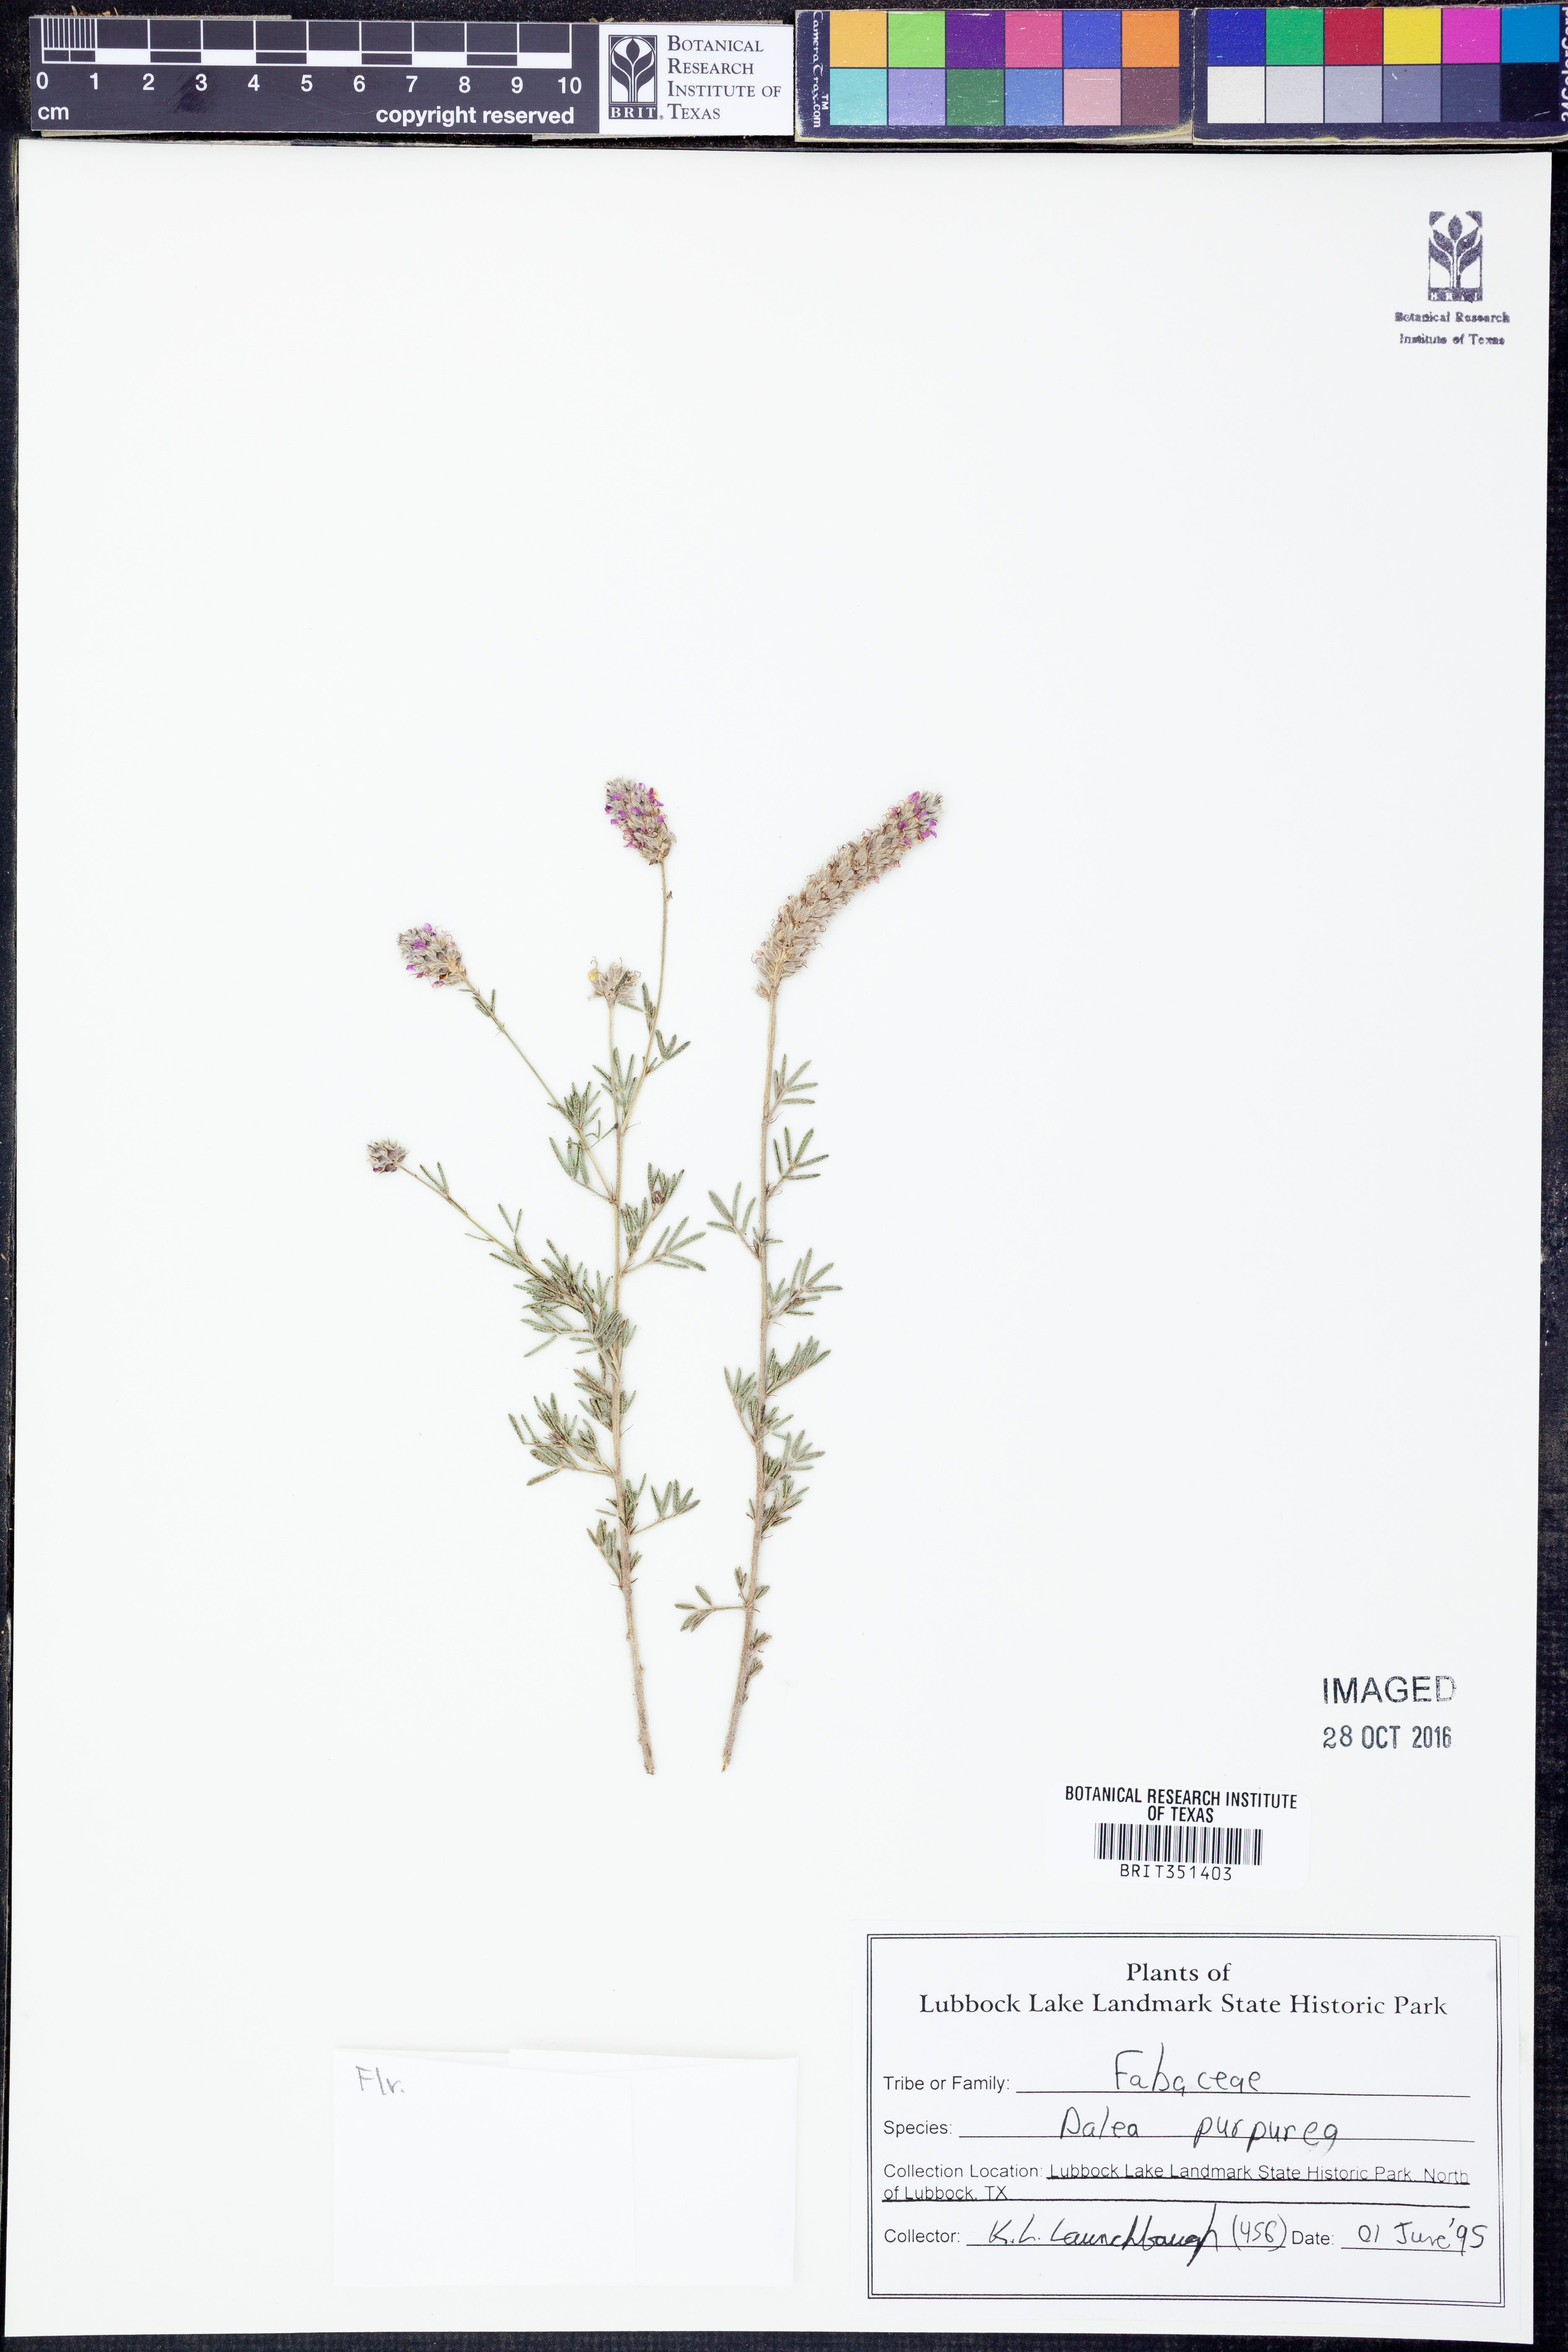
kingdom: Plantae
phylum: Tracheophyta
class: Magnoliopsida
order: Fabales
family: Fabaceae
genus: Dalea
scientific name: Dalea purpurea
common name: Purple prairie-clover
